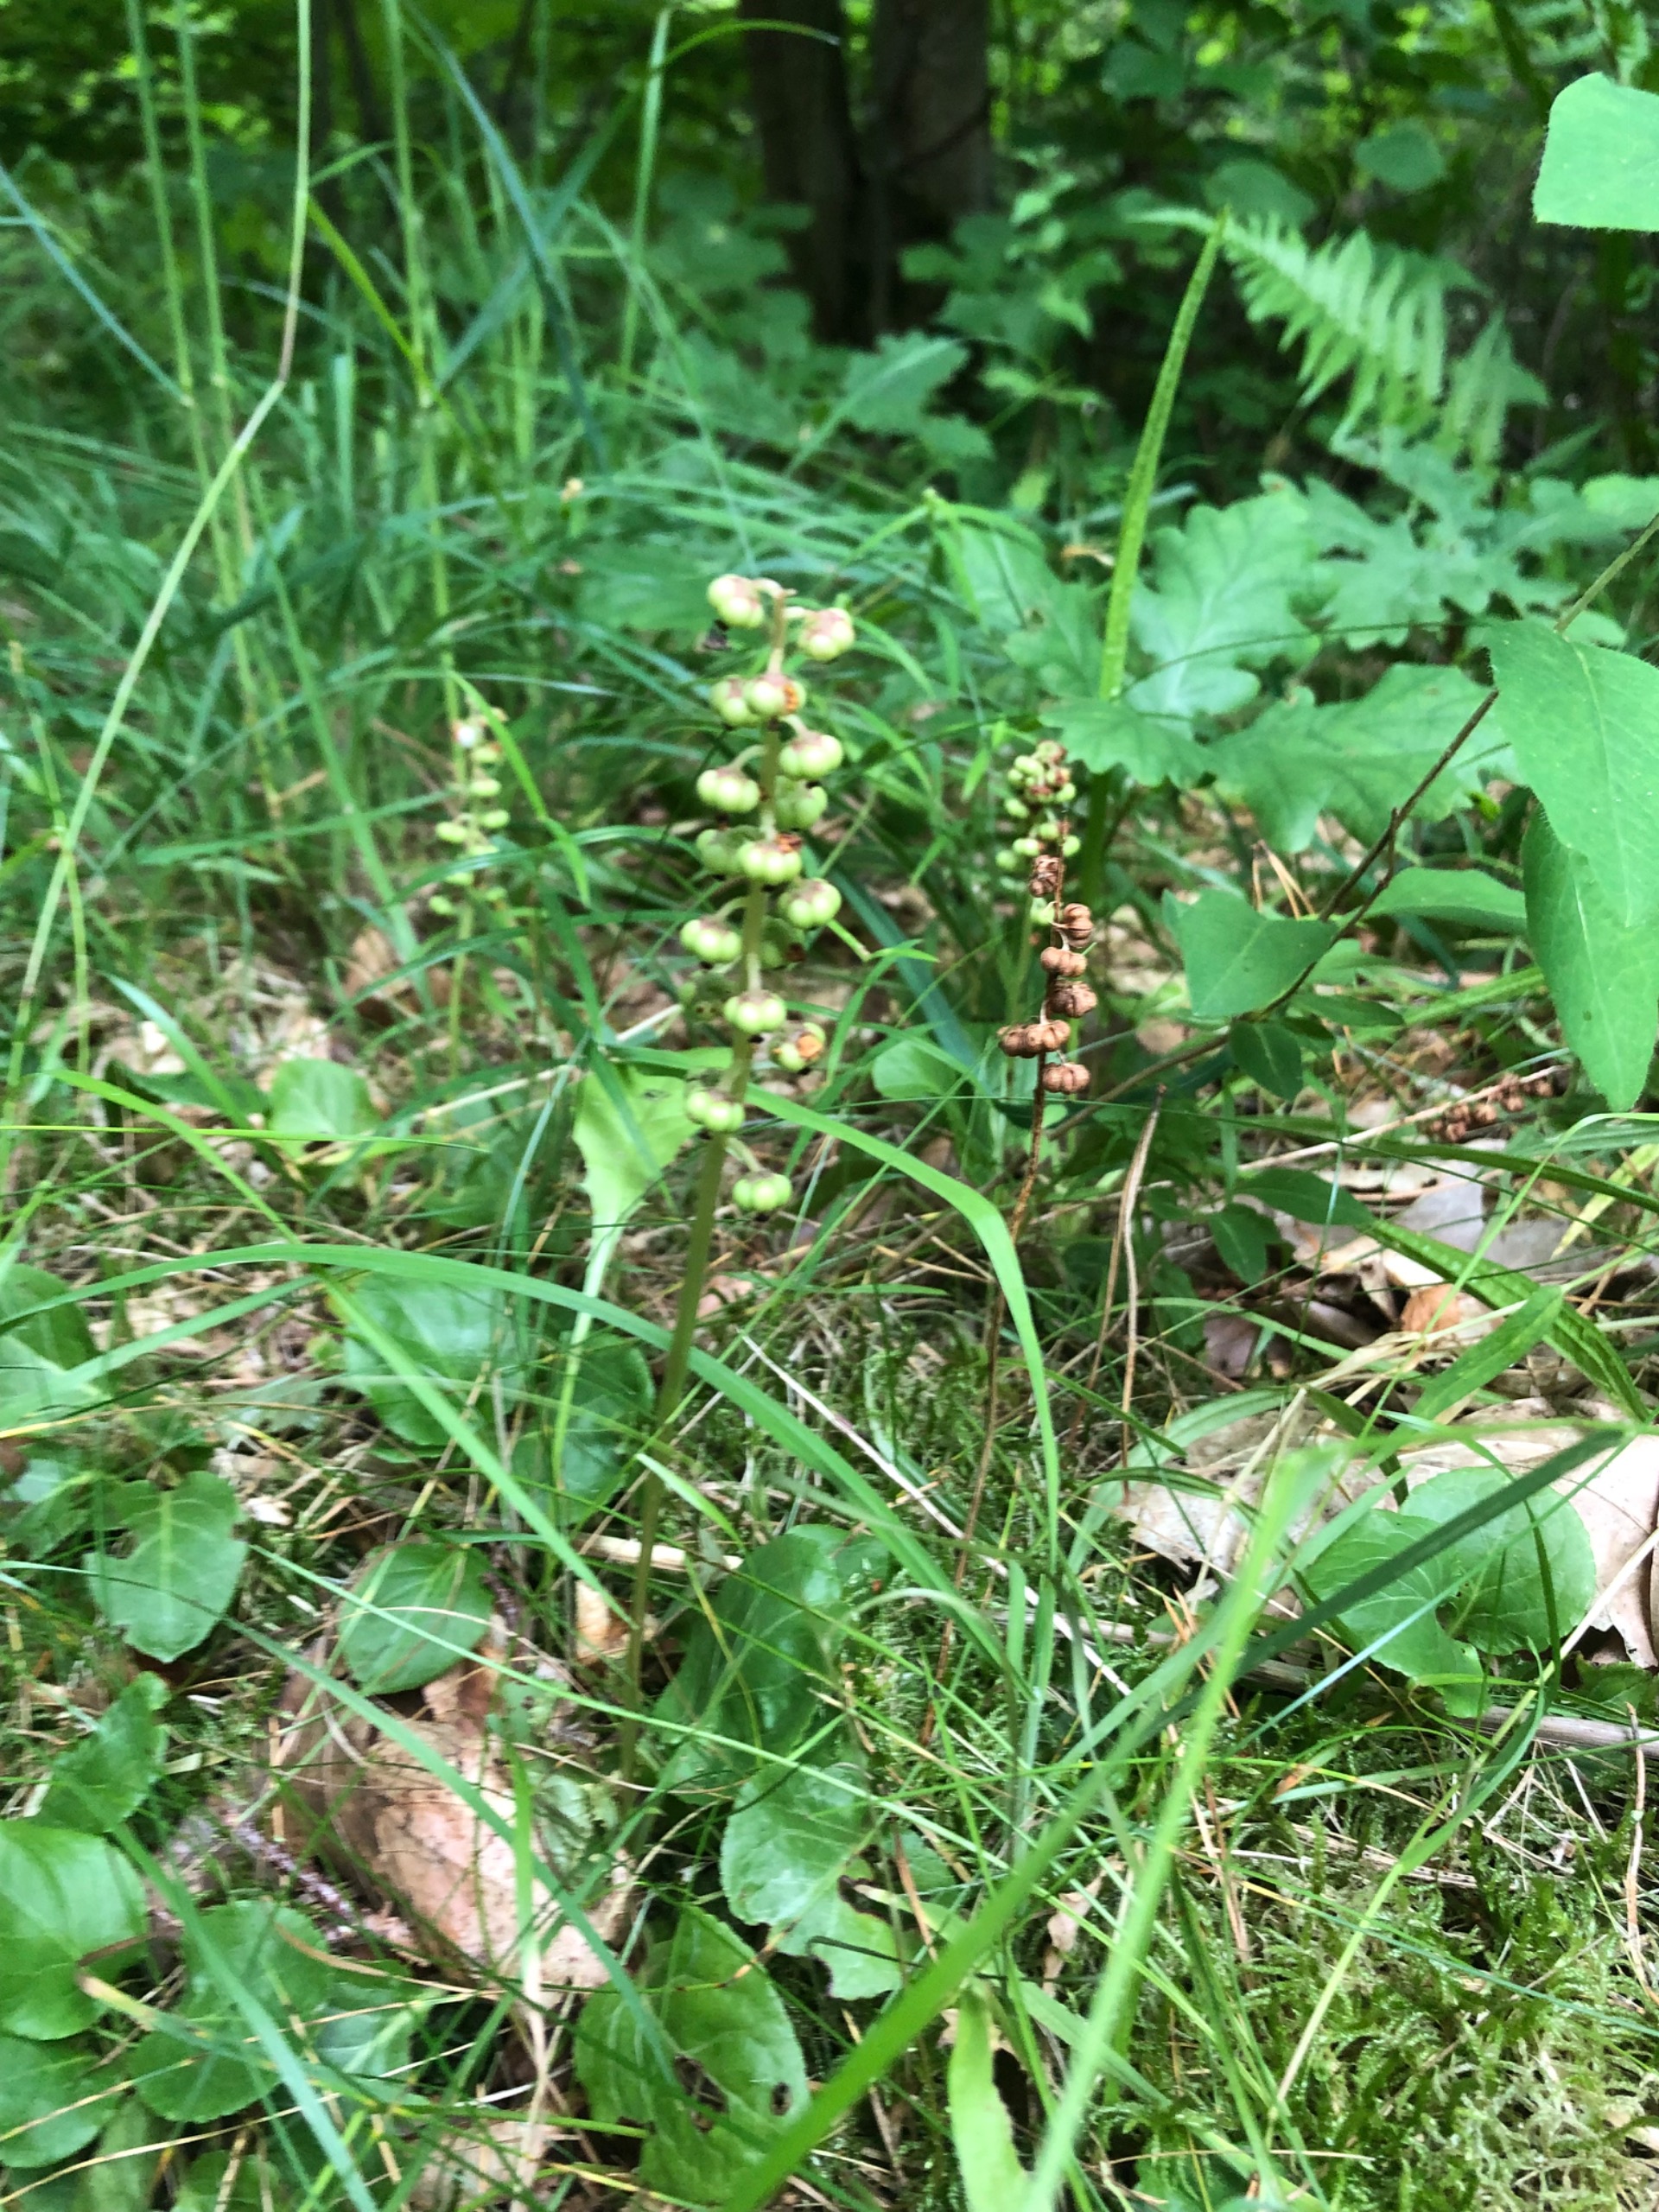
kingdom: Plantae
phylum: Tracheophyta
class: Magnoliopsida
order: Ericales
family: Ericaceae
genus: Pyrola
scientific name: Pyrola minor
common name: Liden vintergrøn
